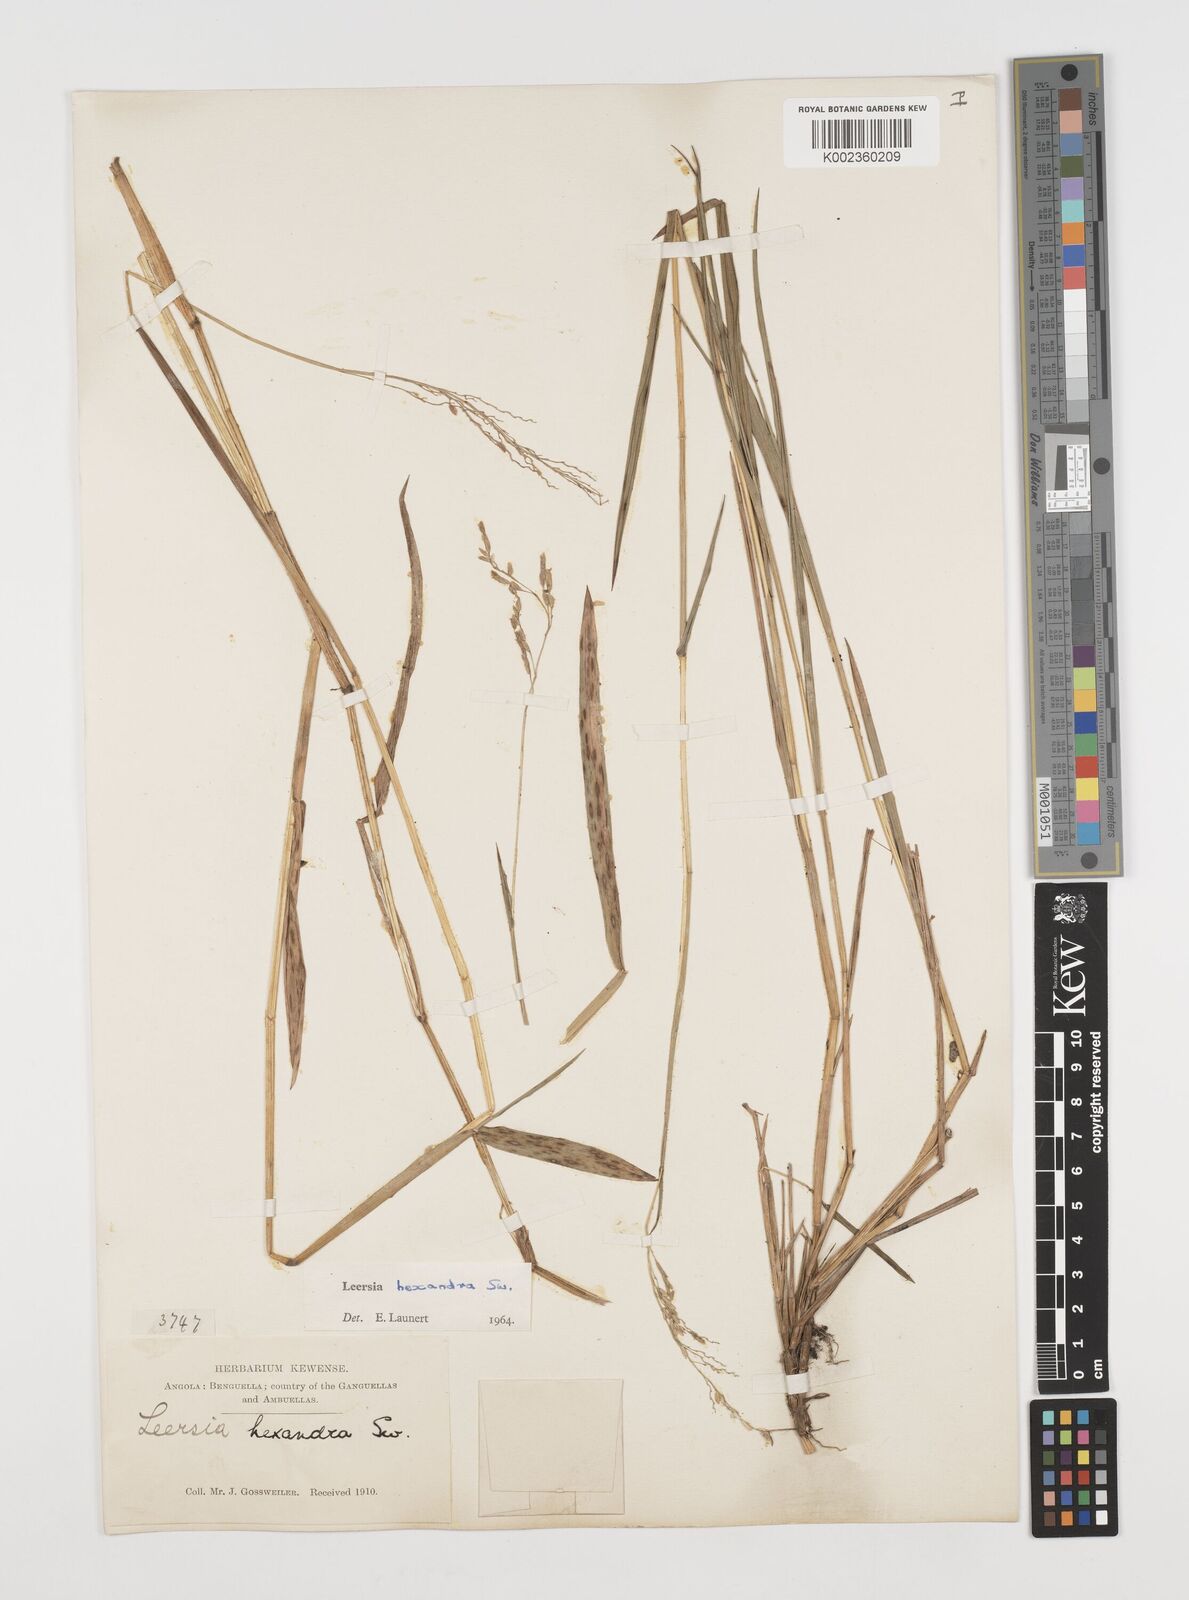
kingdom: Plantae
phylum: Tracheophyta
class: Liliopsida
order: Poales
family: Poaceae
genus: Leersia
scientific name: Leersia hexandra
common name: Southern cut grass
